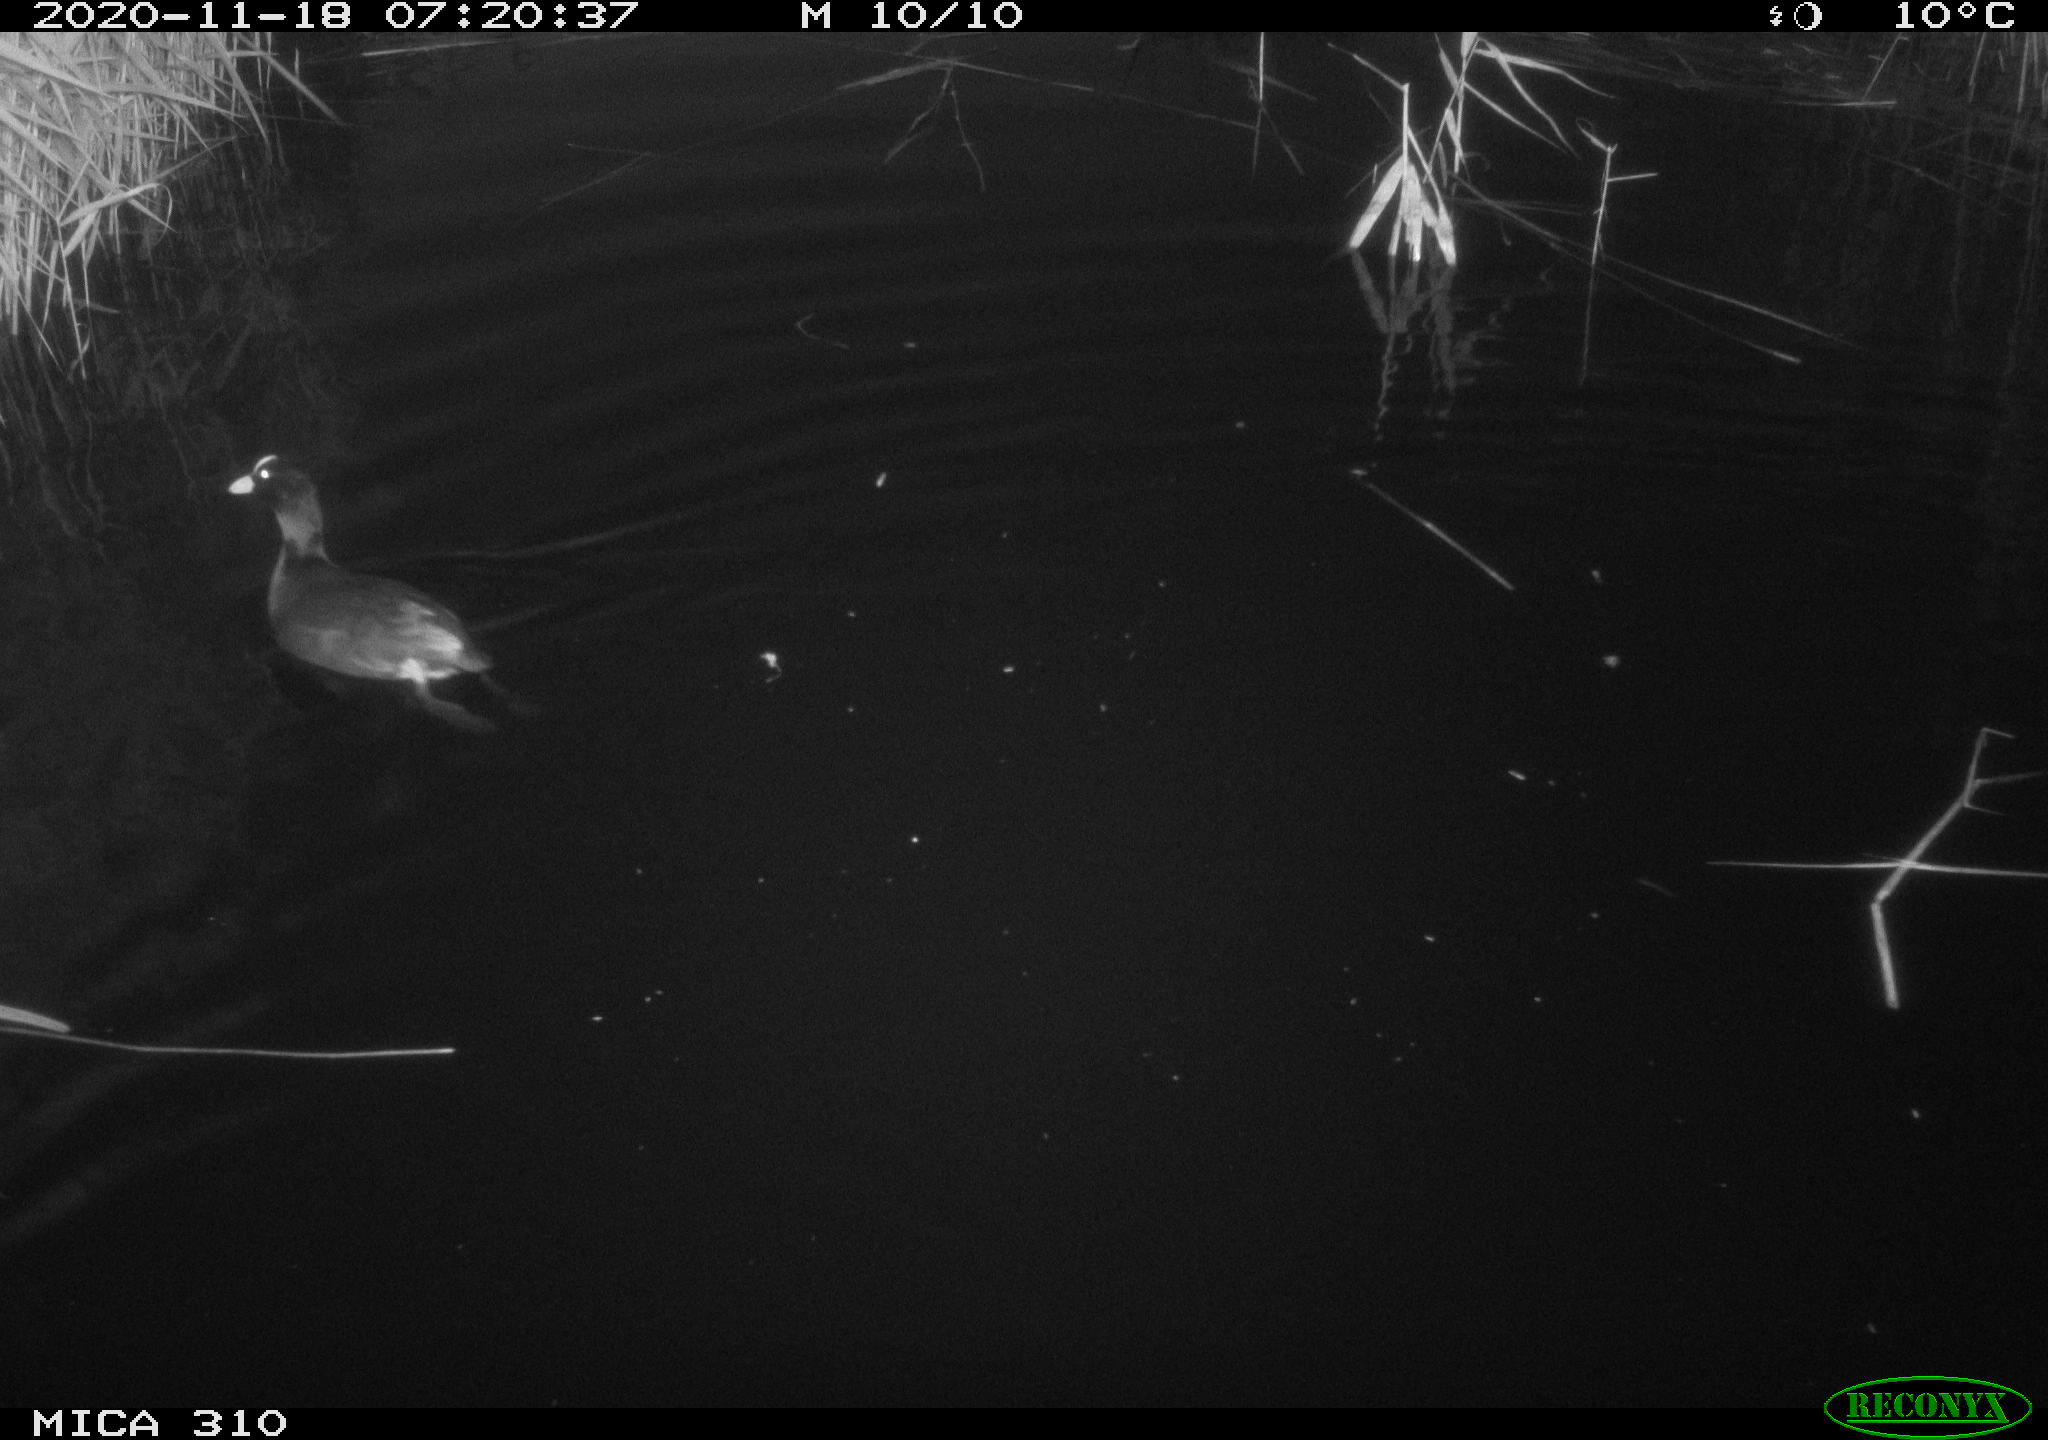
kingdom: Animalia
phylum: Chordata
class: Aves
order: Gruiformes
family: Rallidae
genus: Gallinula
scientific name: Gallinula chloropus
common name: Common moorhen
